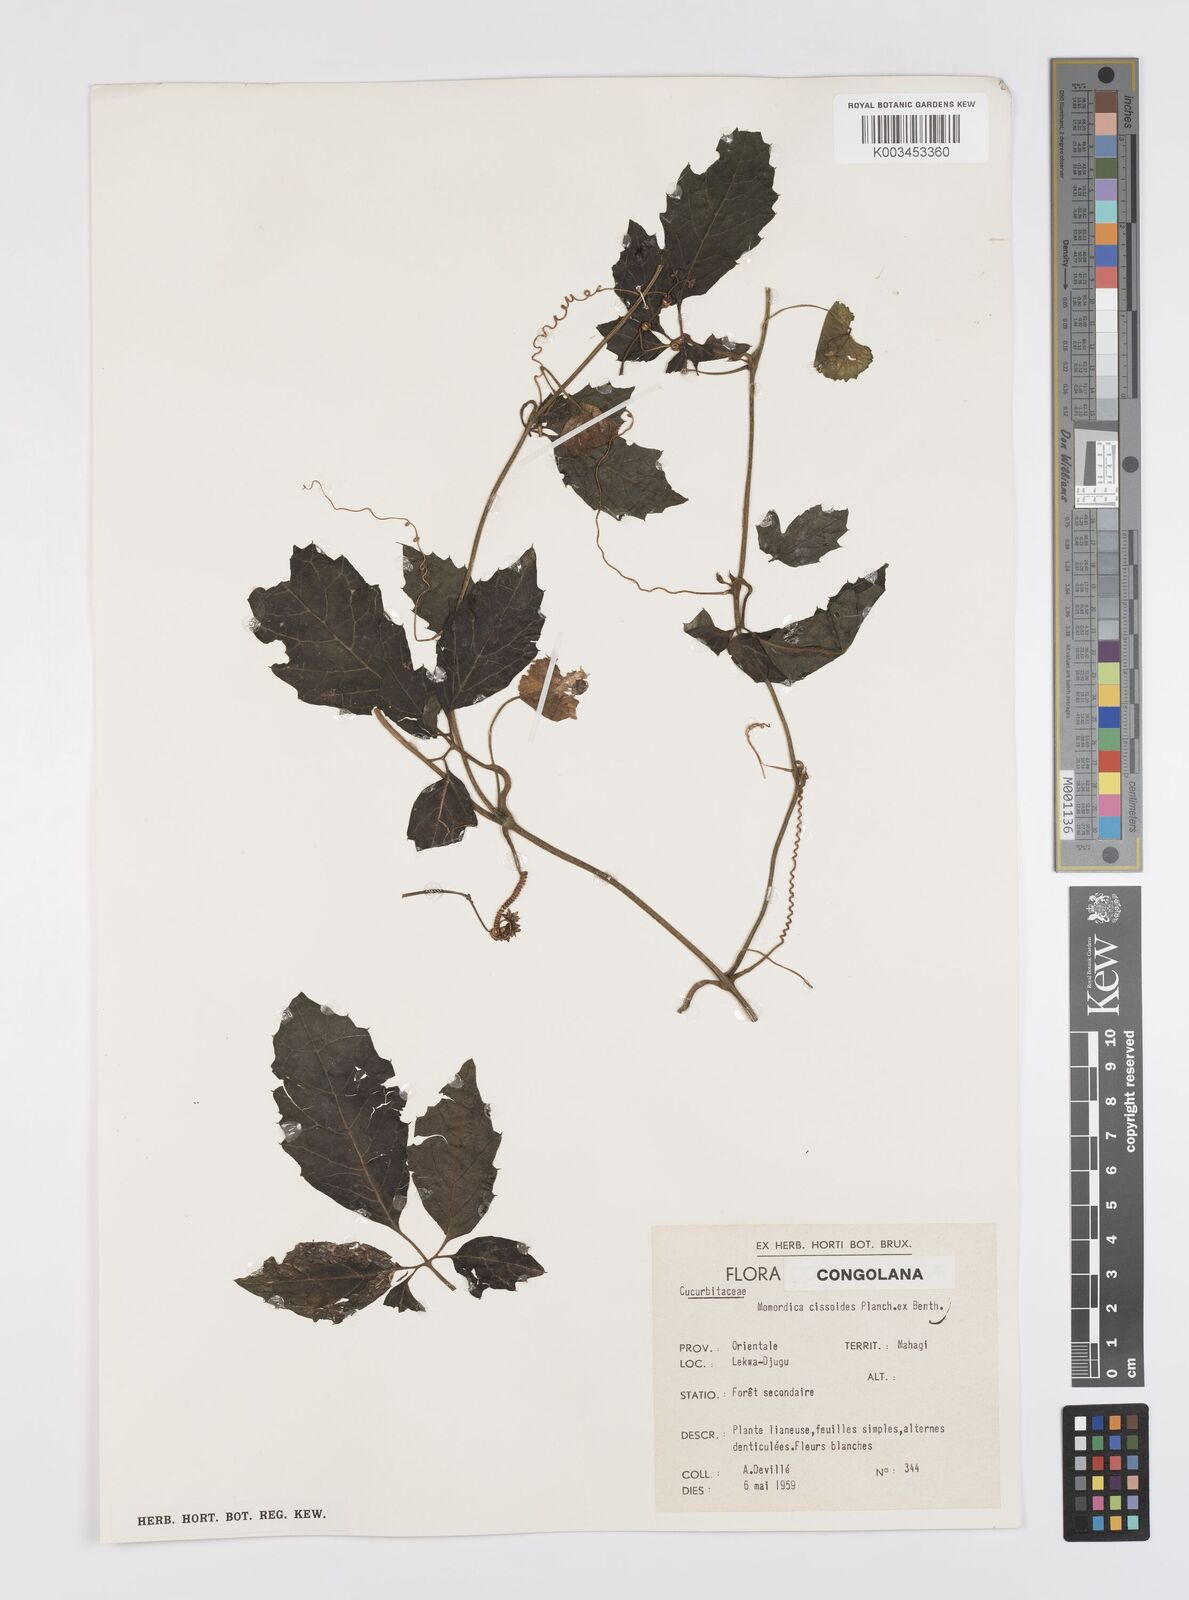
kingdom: Plantae
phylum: Tracheophyta
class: Magnoliopsida
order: Cucurbitales
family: Cucurbitaceae
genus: Momordica
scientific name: Momordica cissoides
